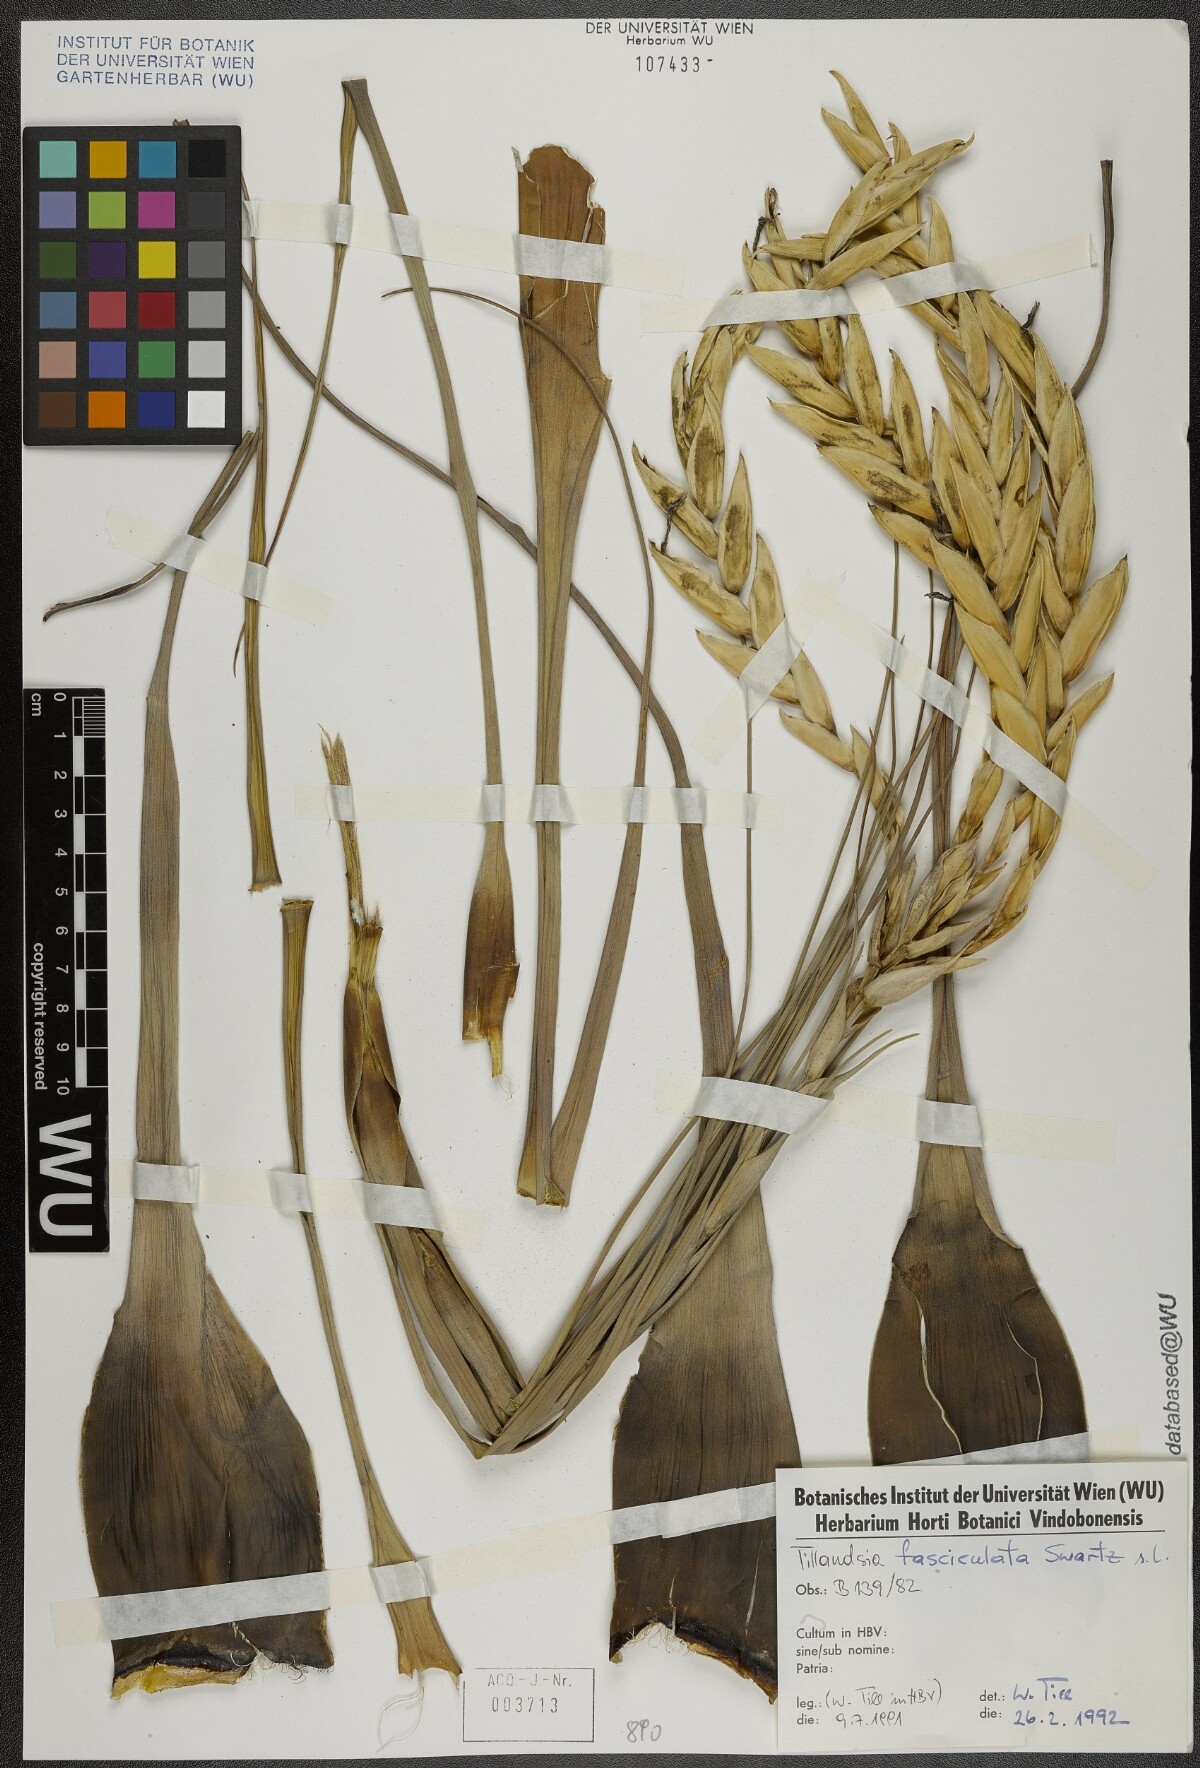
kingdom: Plantae
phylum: Tracheophyta
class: Liliopsida
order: Poales
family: Bromeliaceae
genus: Tillandsia
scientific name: Tillandsia fasciculata
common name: Giant airplant
